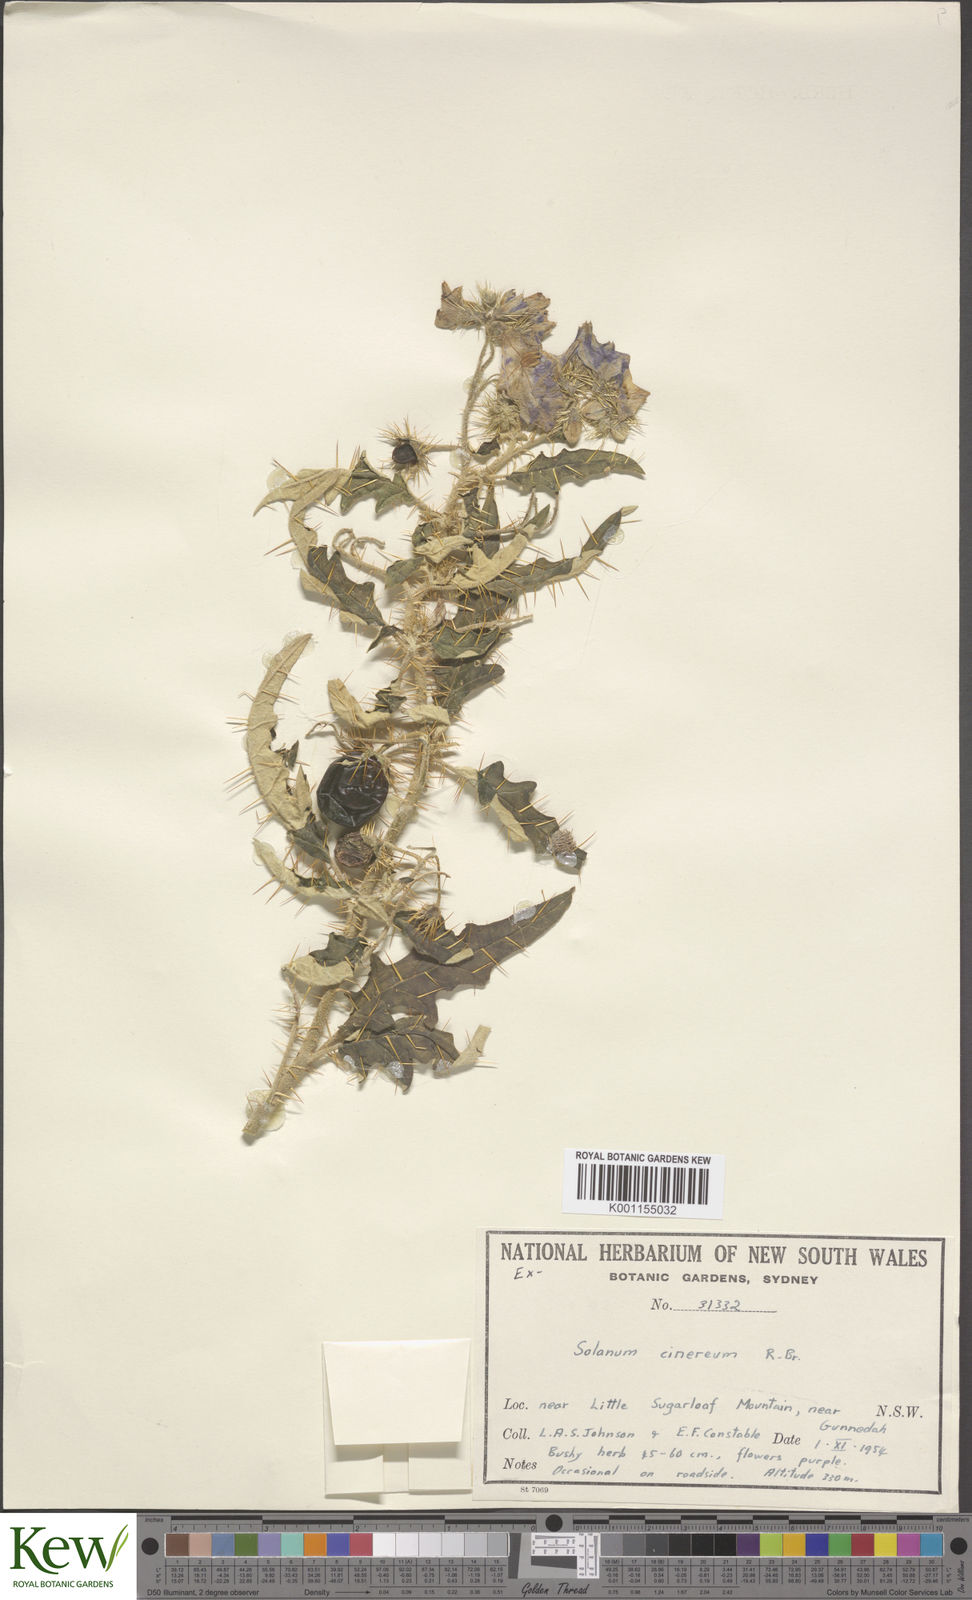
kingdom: Plantae
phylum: Tracheophyta
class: Magnoliopsida
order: Solanales
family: Solanaceae
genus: Solanum
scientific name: Solanum cinereum
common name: Narrawa-bur
